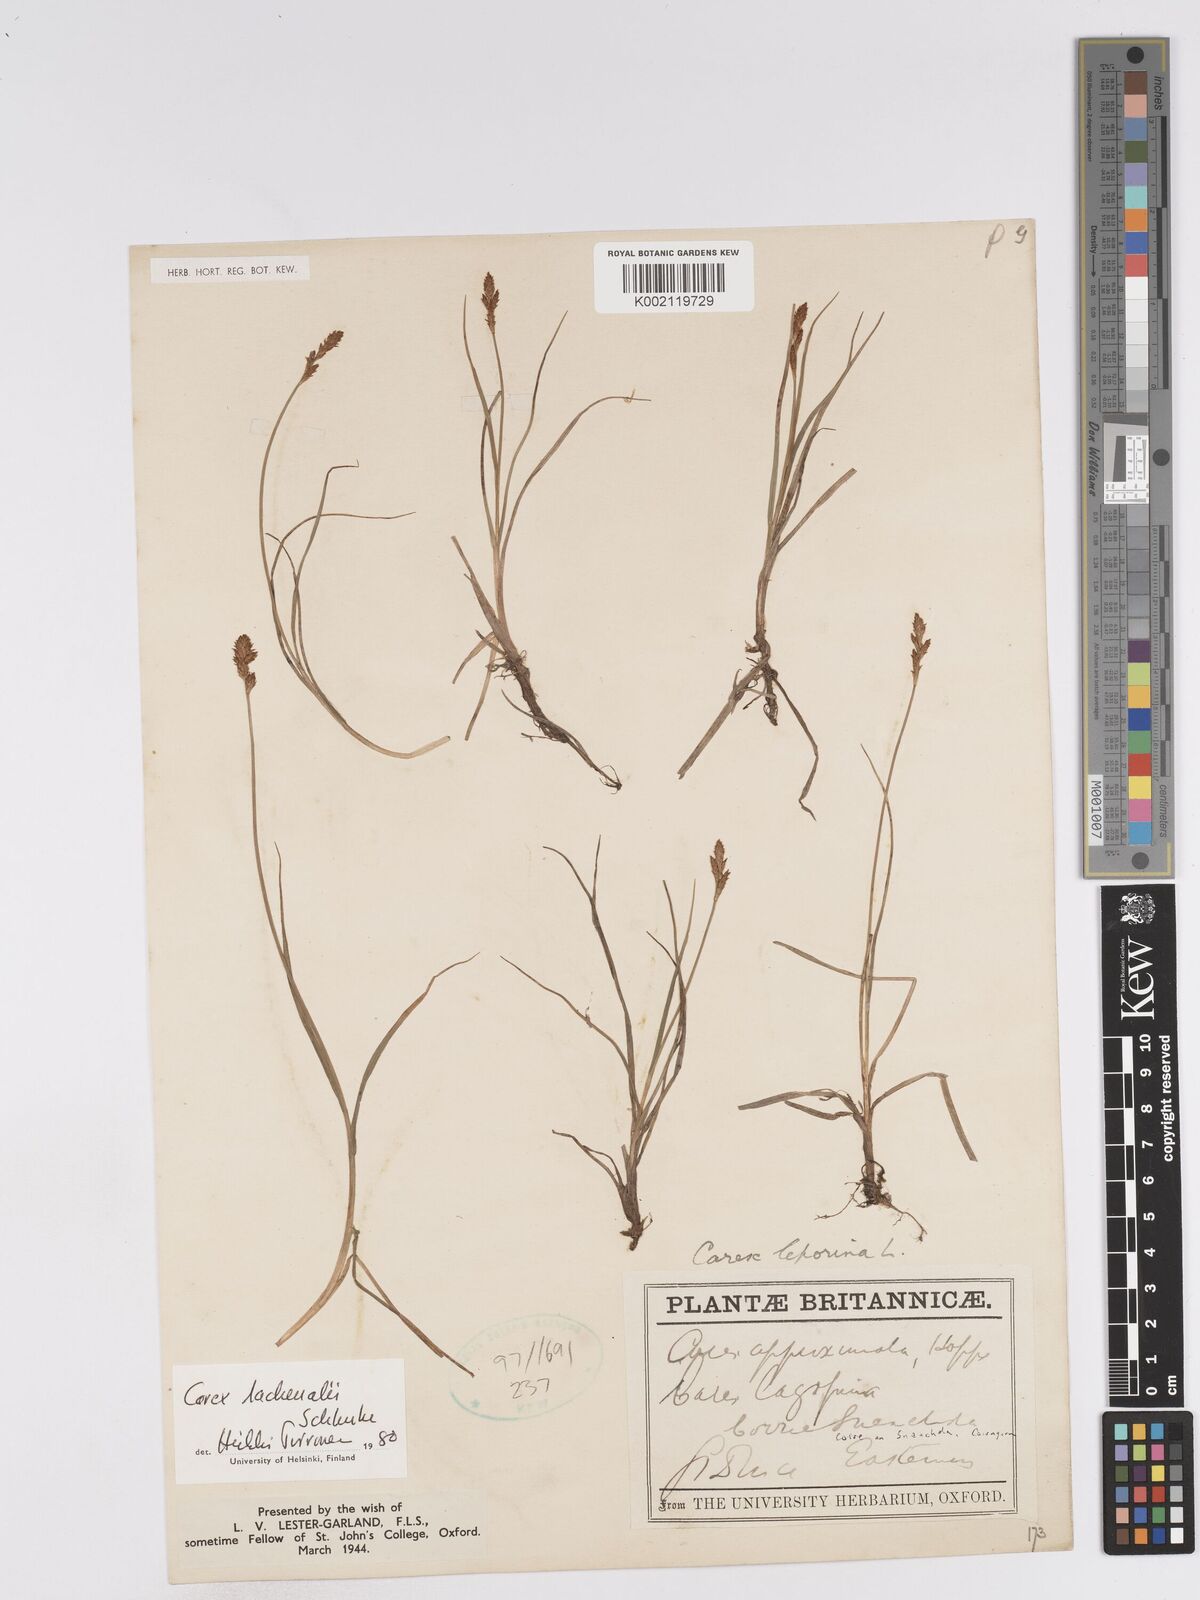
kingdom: Plantae
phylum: Tracheophyta
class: Liliopsida
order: Poales
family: Cyperaceae
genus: Carex
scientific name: Carex helvola
